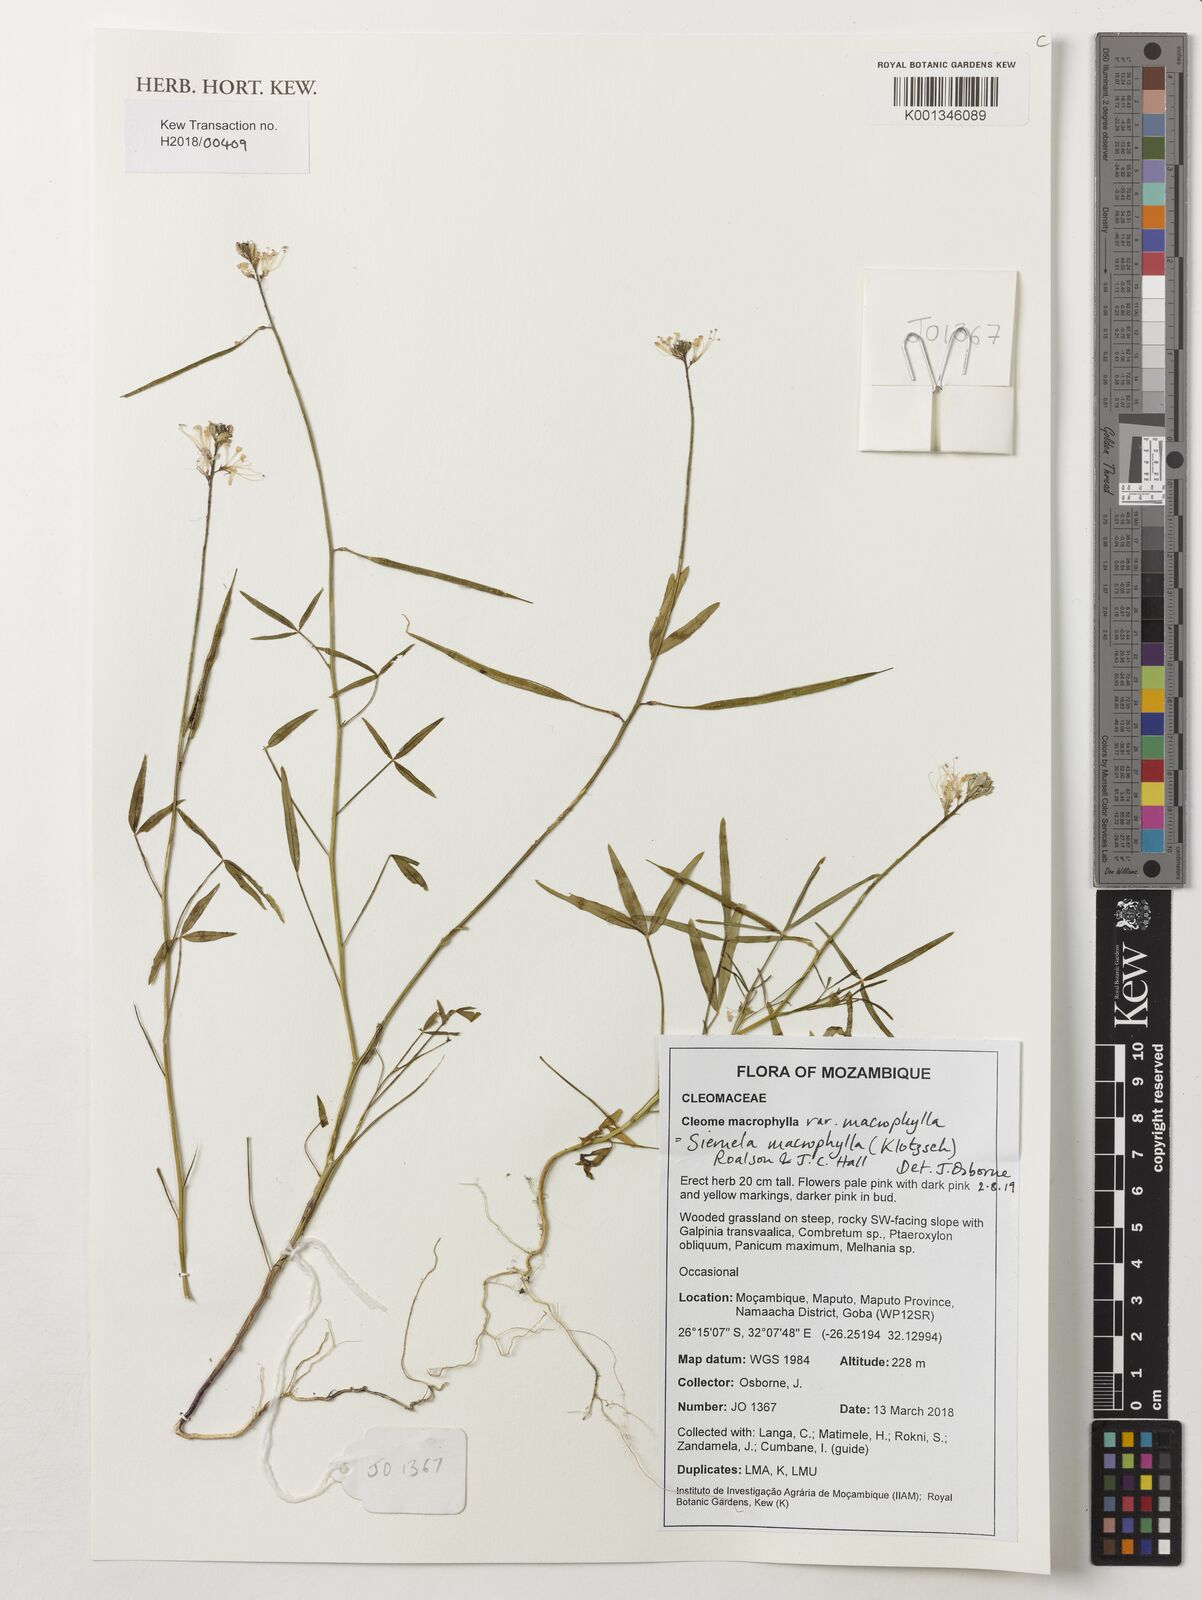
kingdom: Plantae
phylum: Tracheophyta
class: Magnoliopsida
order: Brassicales
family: Cleomaceae
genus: Sieruela
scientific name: Sieruela macrophylla
